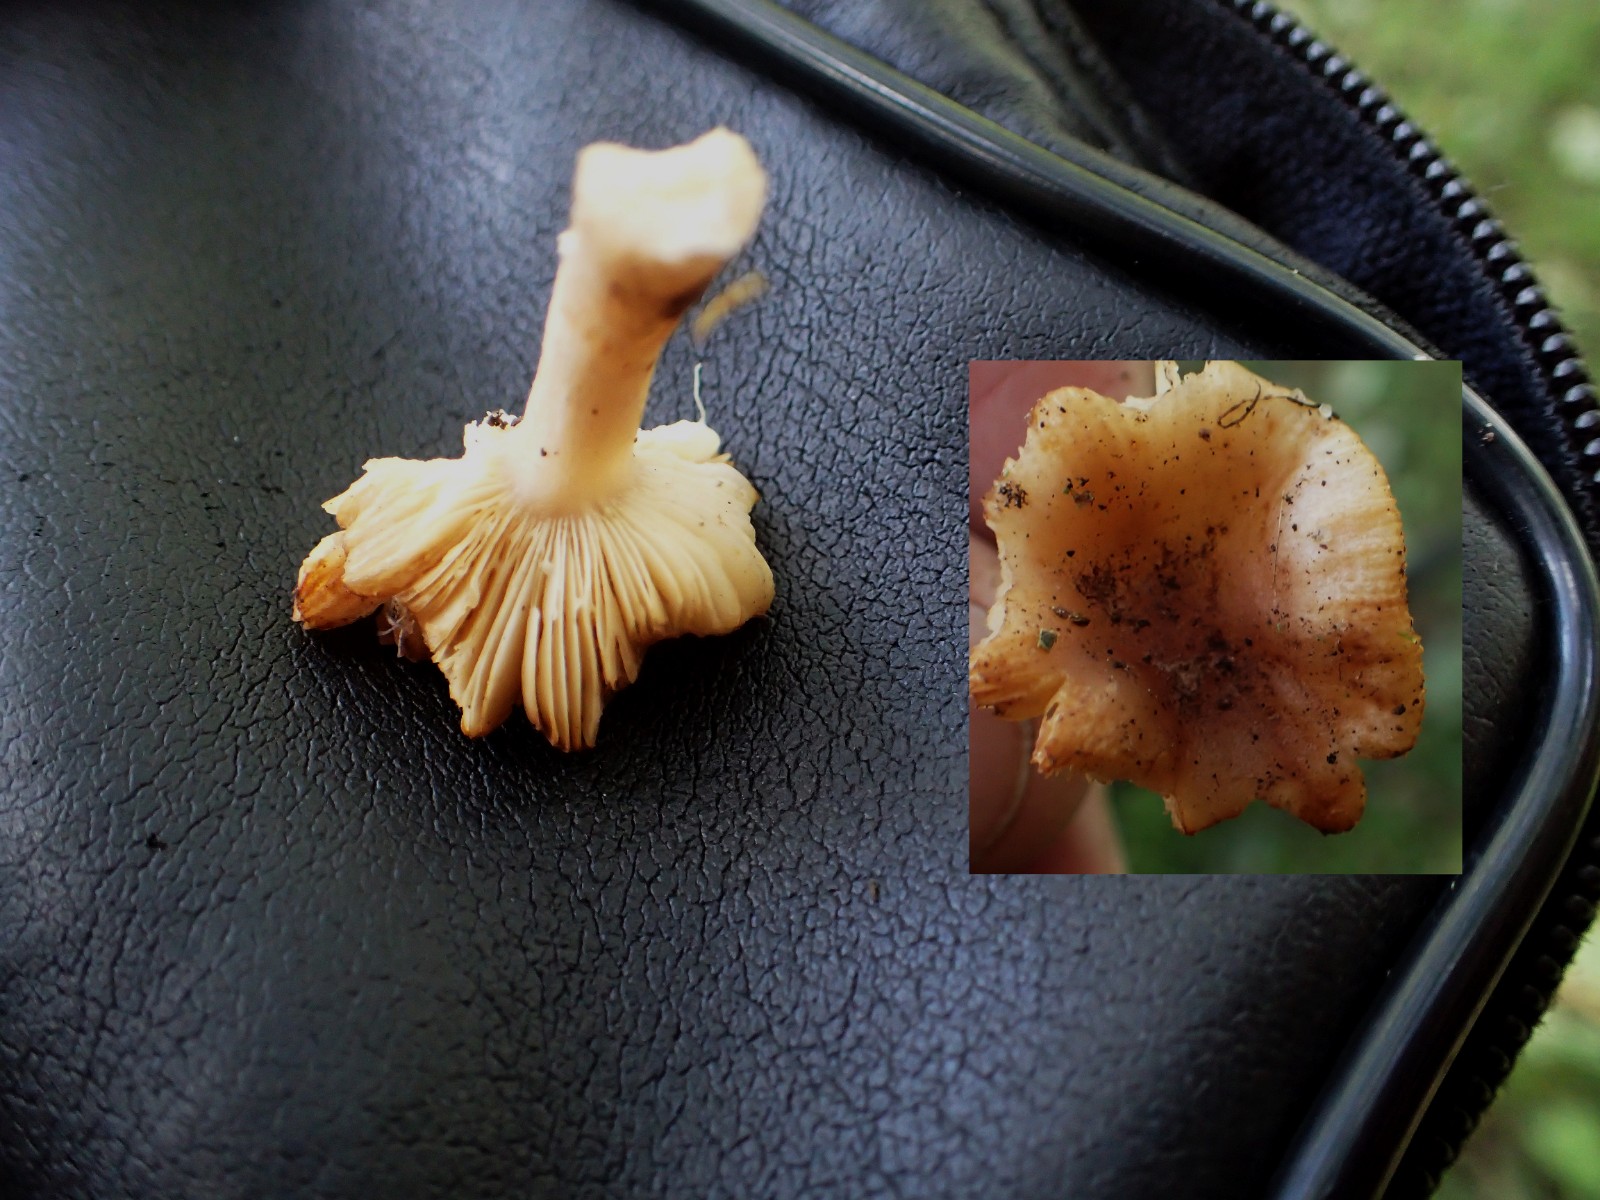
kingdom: Fungi
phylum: Basidiomycota
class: Agaricomycetes
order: Russulales
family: Russulaceae
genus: Russula
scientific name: Russula
